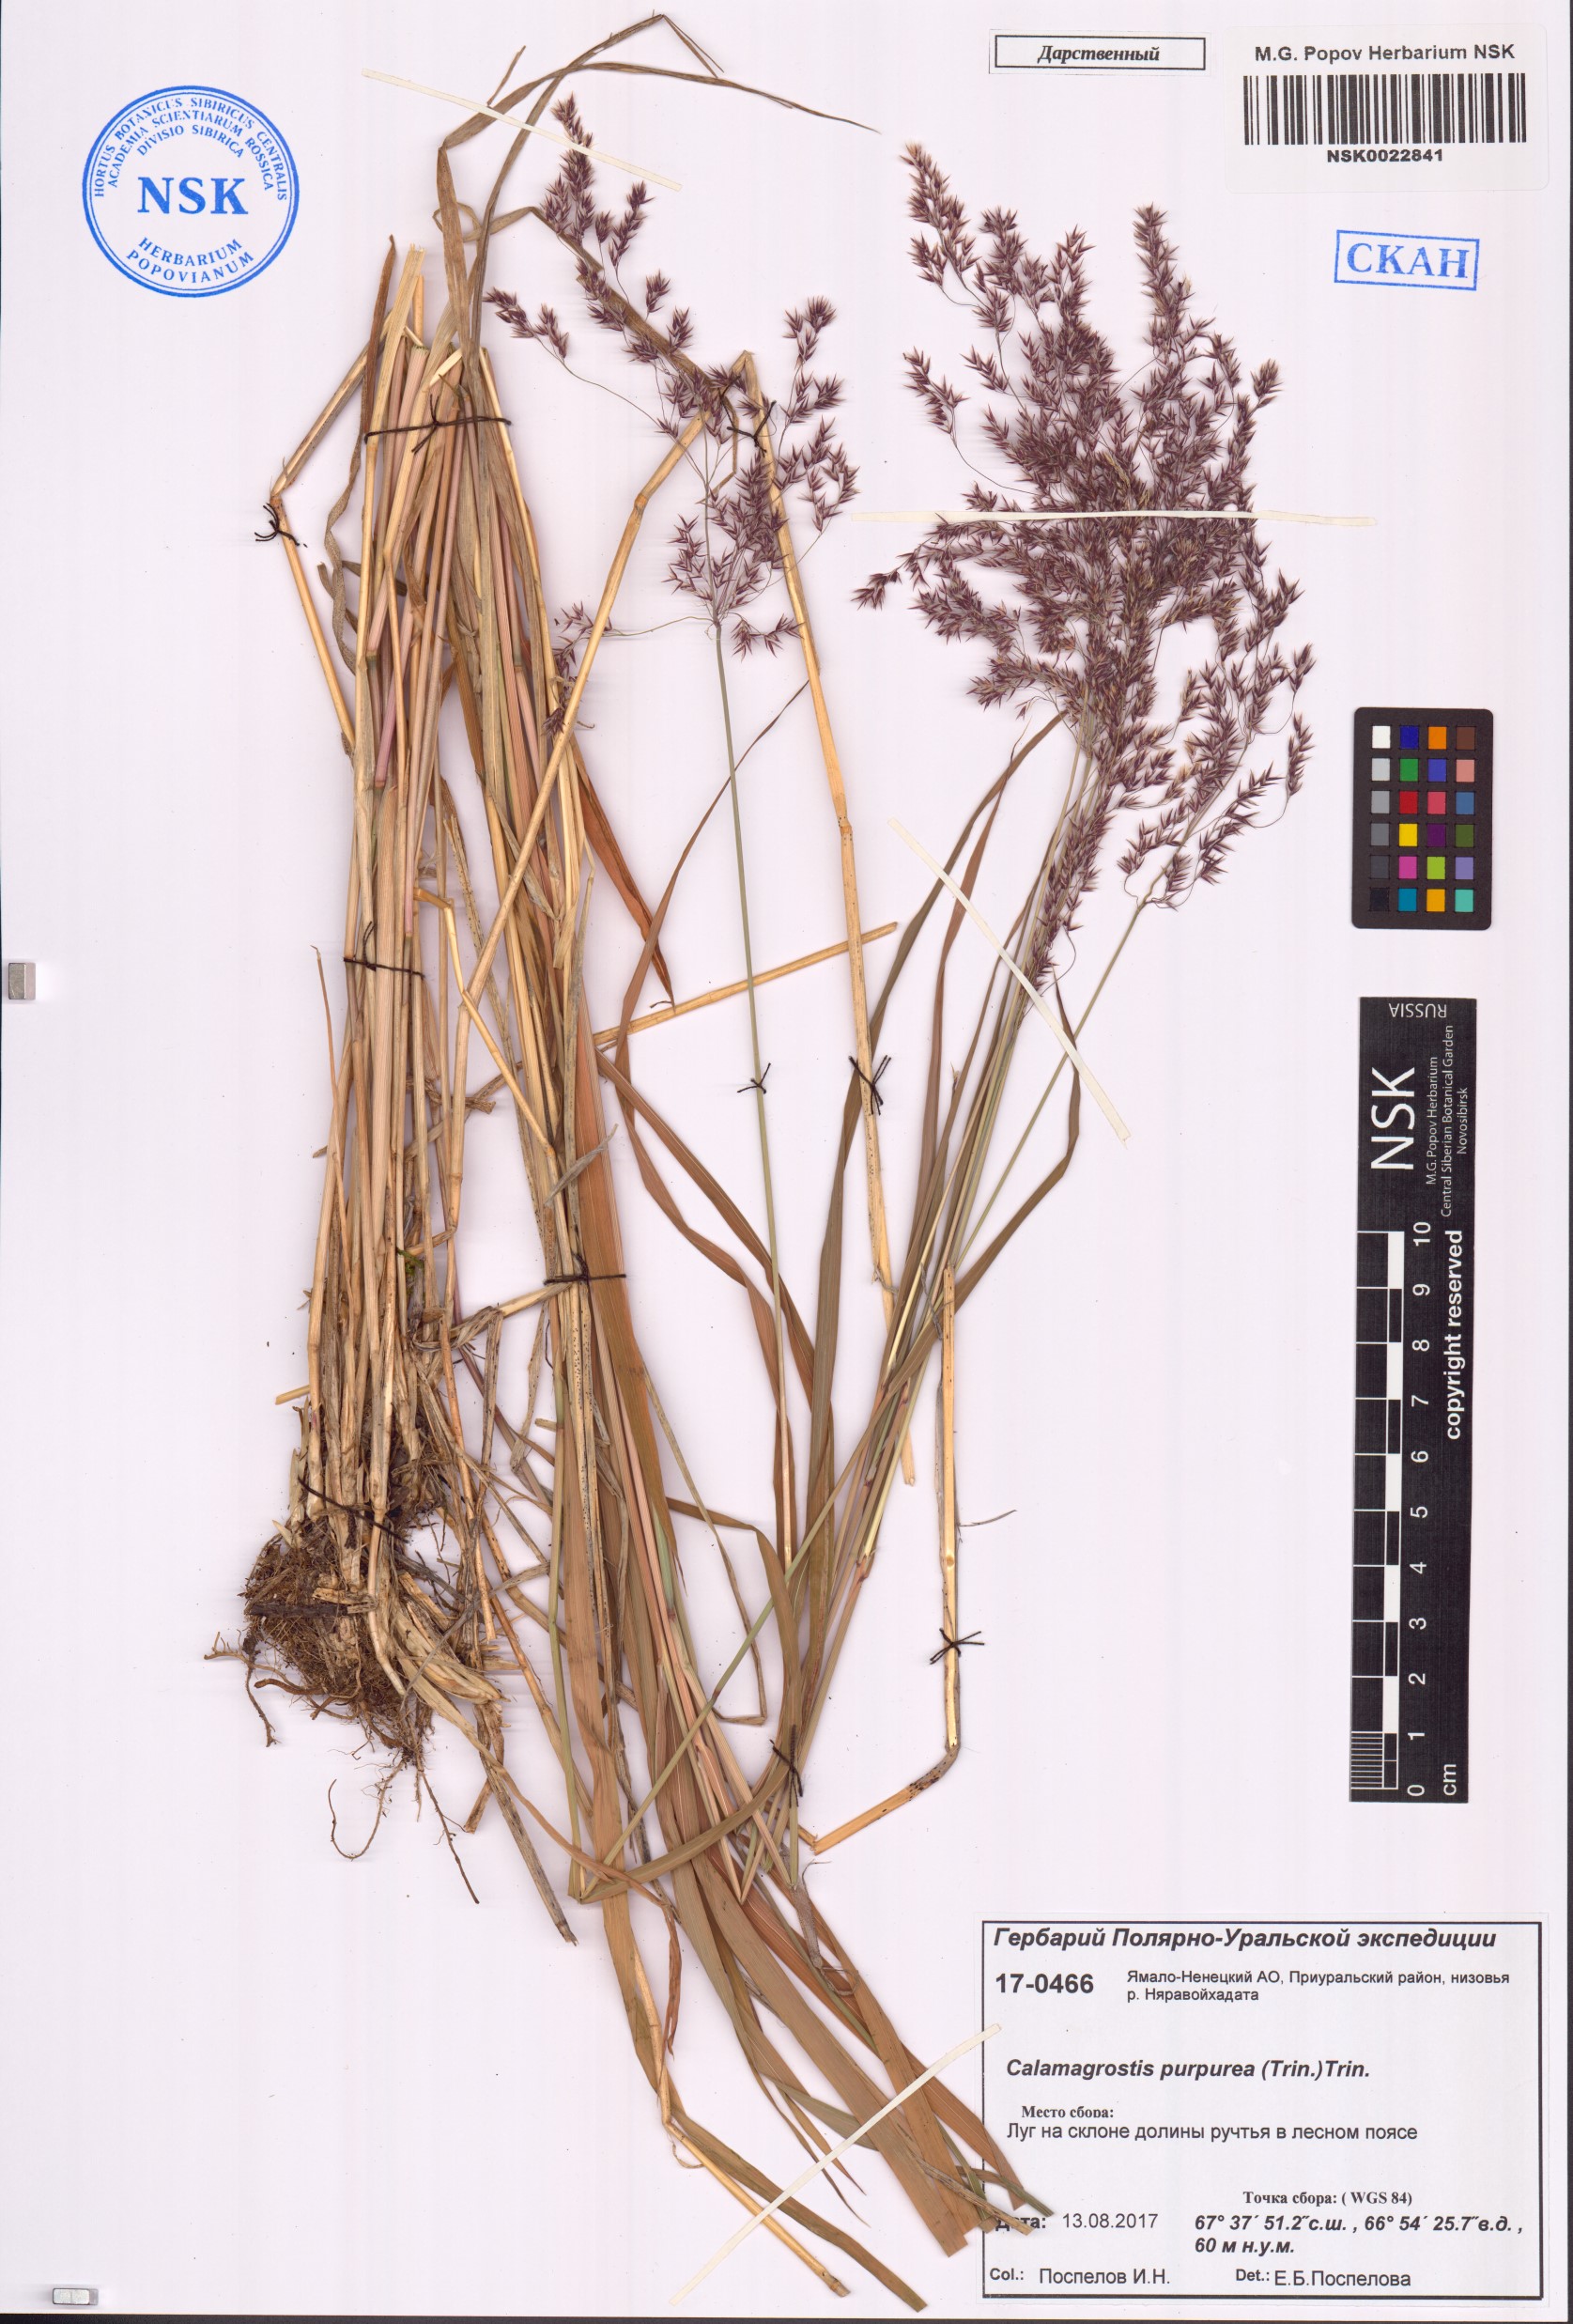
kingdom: Plantae
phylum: Tracheophyta
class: Liliopsida
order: Poales
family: Poaceae
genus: Calamagrostis
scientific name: Calamagrostis purpurea
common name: Scandinavian small-reed
